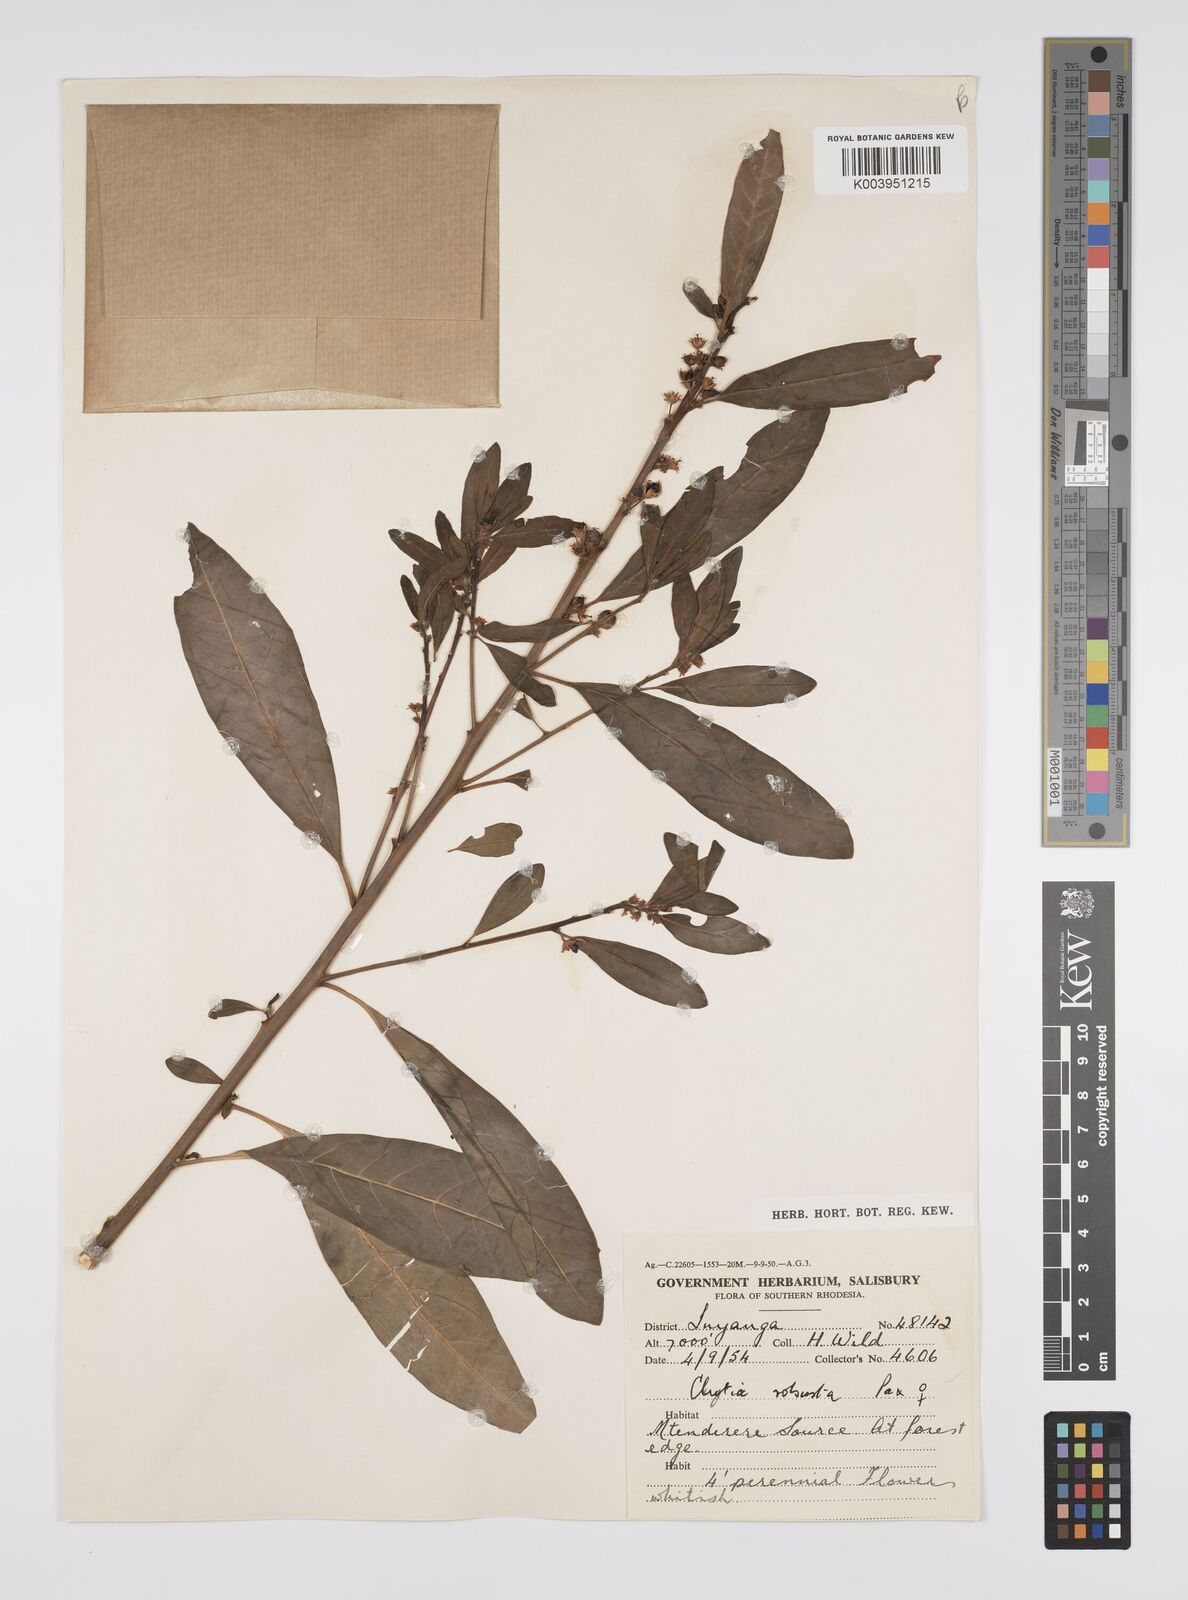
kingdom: Plantae
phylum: Tracheophyta
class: Magnoliopsida
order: Malpighiales
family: Peraceae
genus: Clutia
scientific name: Clutia kilimandscharica
